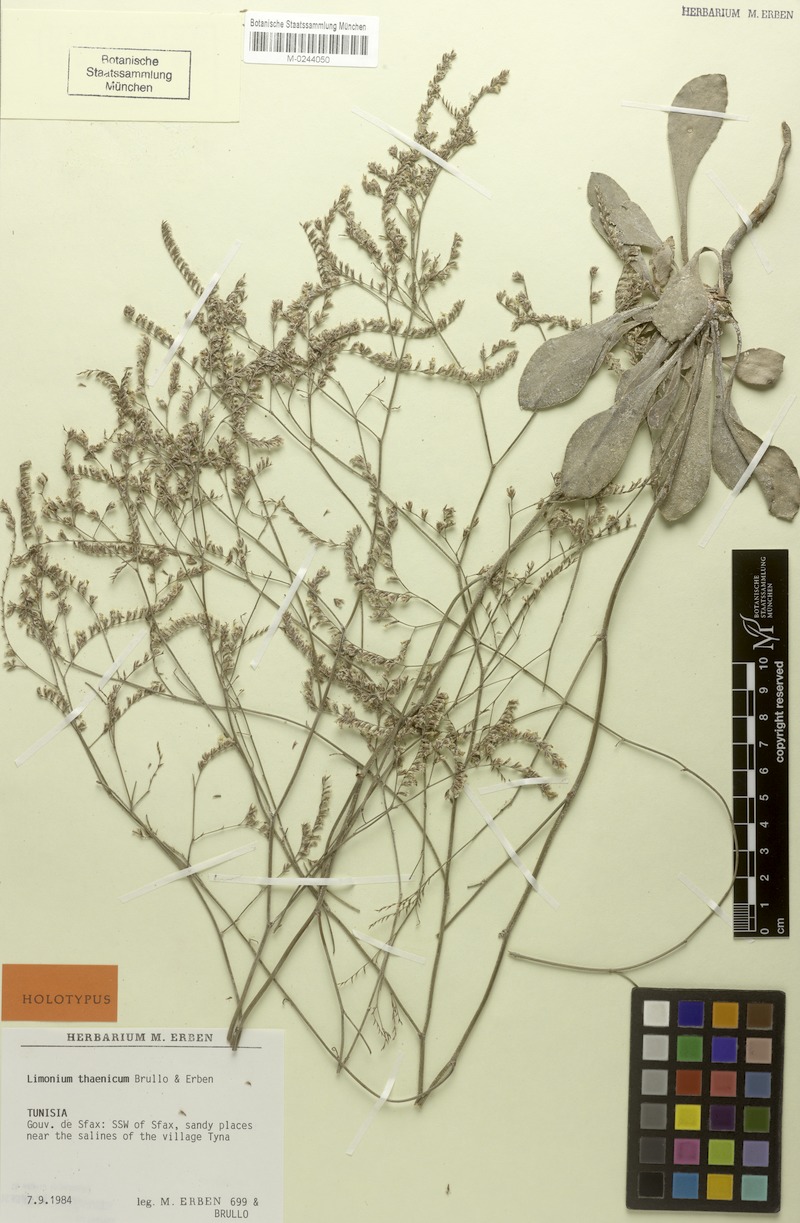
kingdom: Plantae
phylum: Tracheophyta
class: Magnoliopsida
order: Caryophyllales
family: Plumbaginaceae
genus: Limonium
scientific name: Limonium thaenicum
